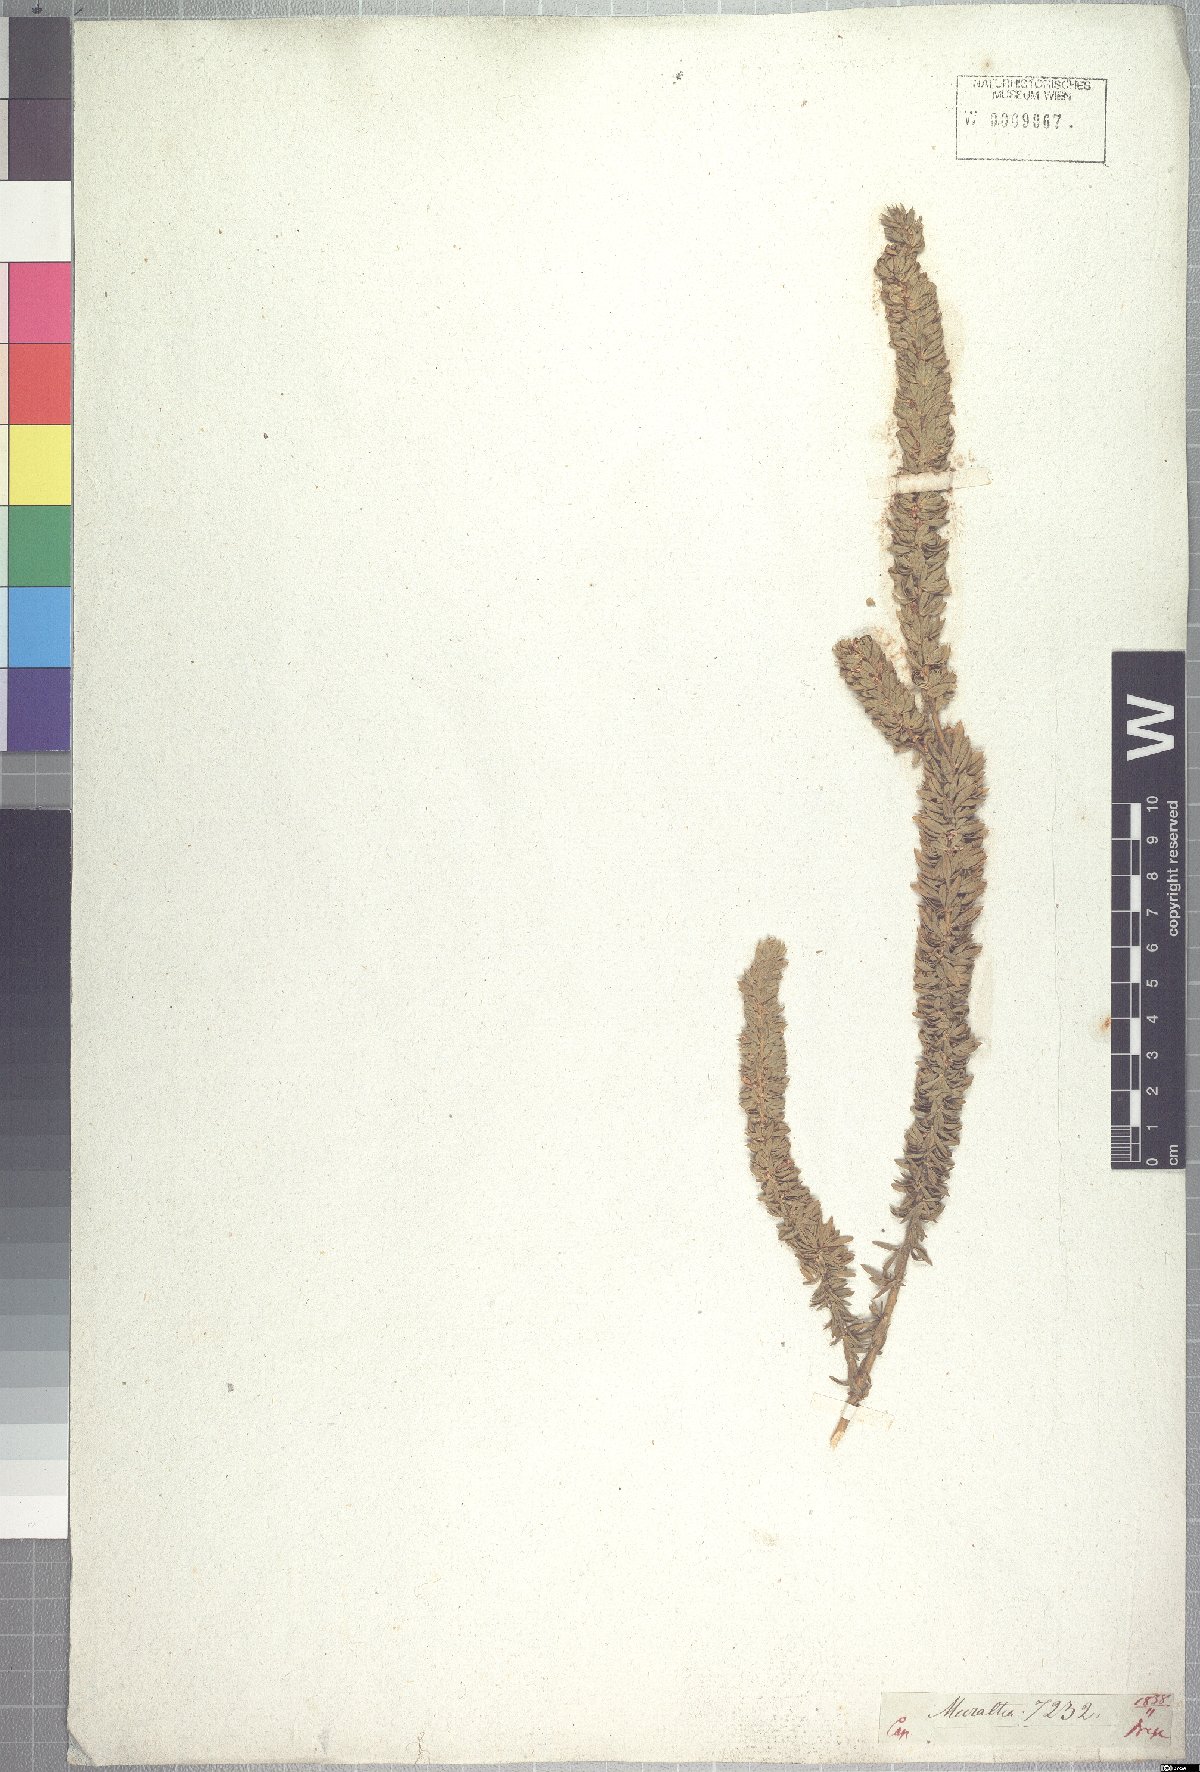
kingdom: Plantae
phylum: Tracheophyta
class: Magnoliopsida
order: Fabales
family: Polygalaceae
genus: Muraltia
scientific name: Muraltia alba
